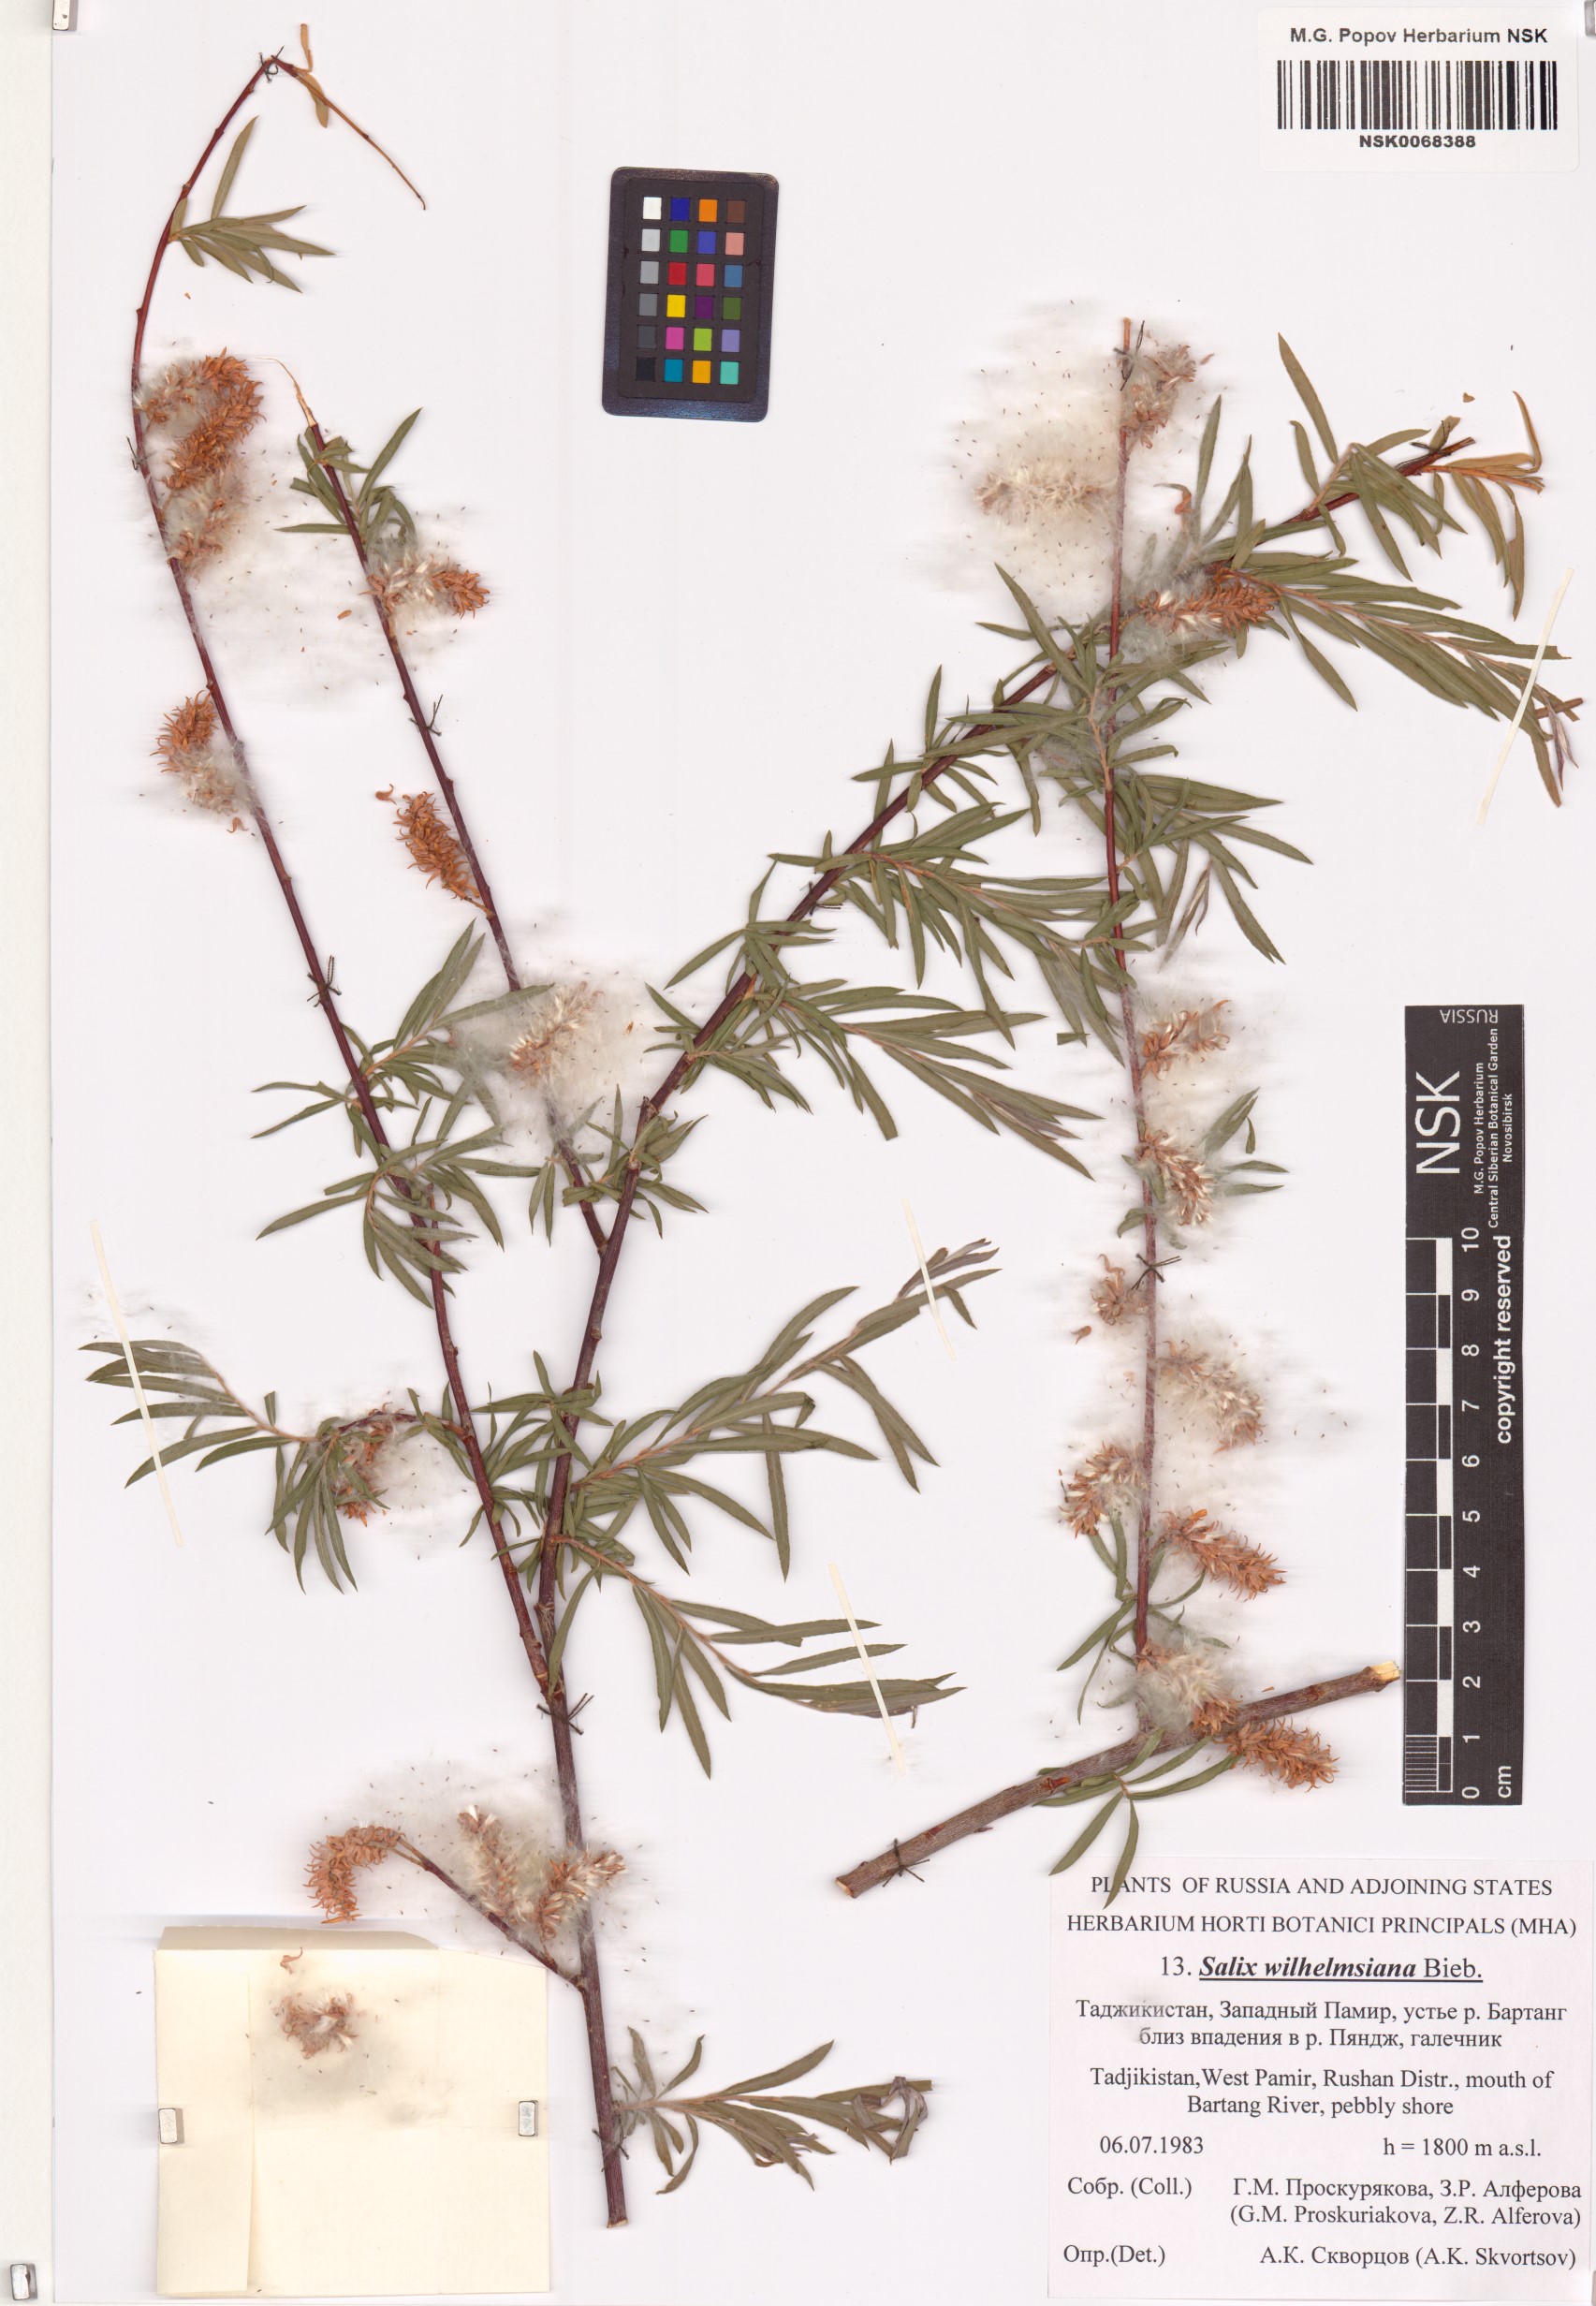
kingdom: Plantae
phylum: Tracheophyta
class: Magnoliopsida
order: Malpighiales
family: Salicaceae
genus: Salix
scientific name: Salix wilhelmsiana
